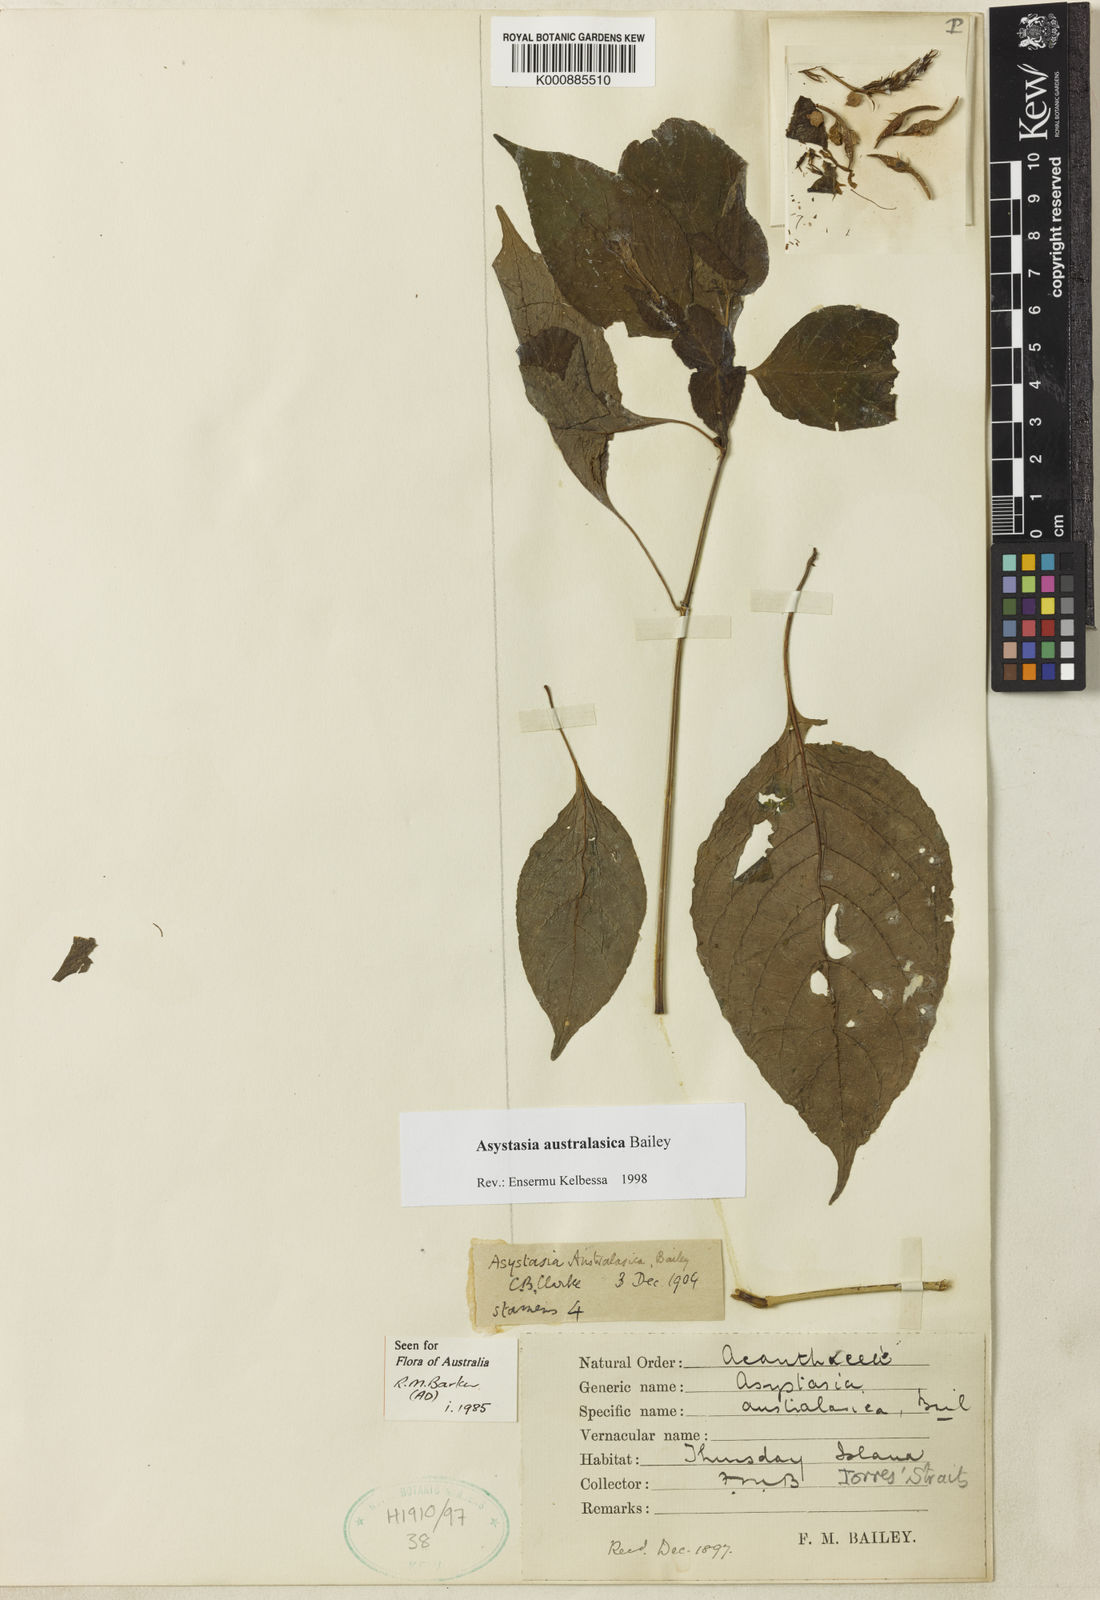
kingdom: Plantae
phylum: Tracheophyta
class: Magnoliopsida
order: Lamiales
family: Acanthaceae
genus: Asystasia
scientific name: Asystasia australasica
